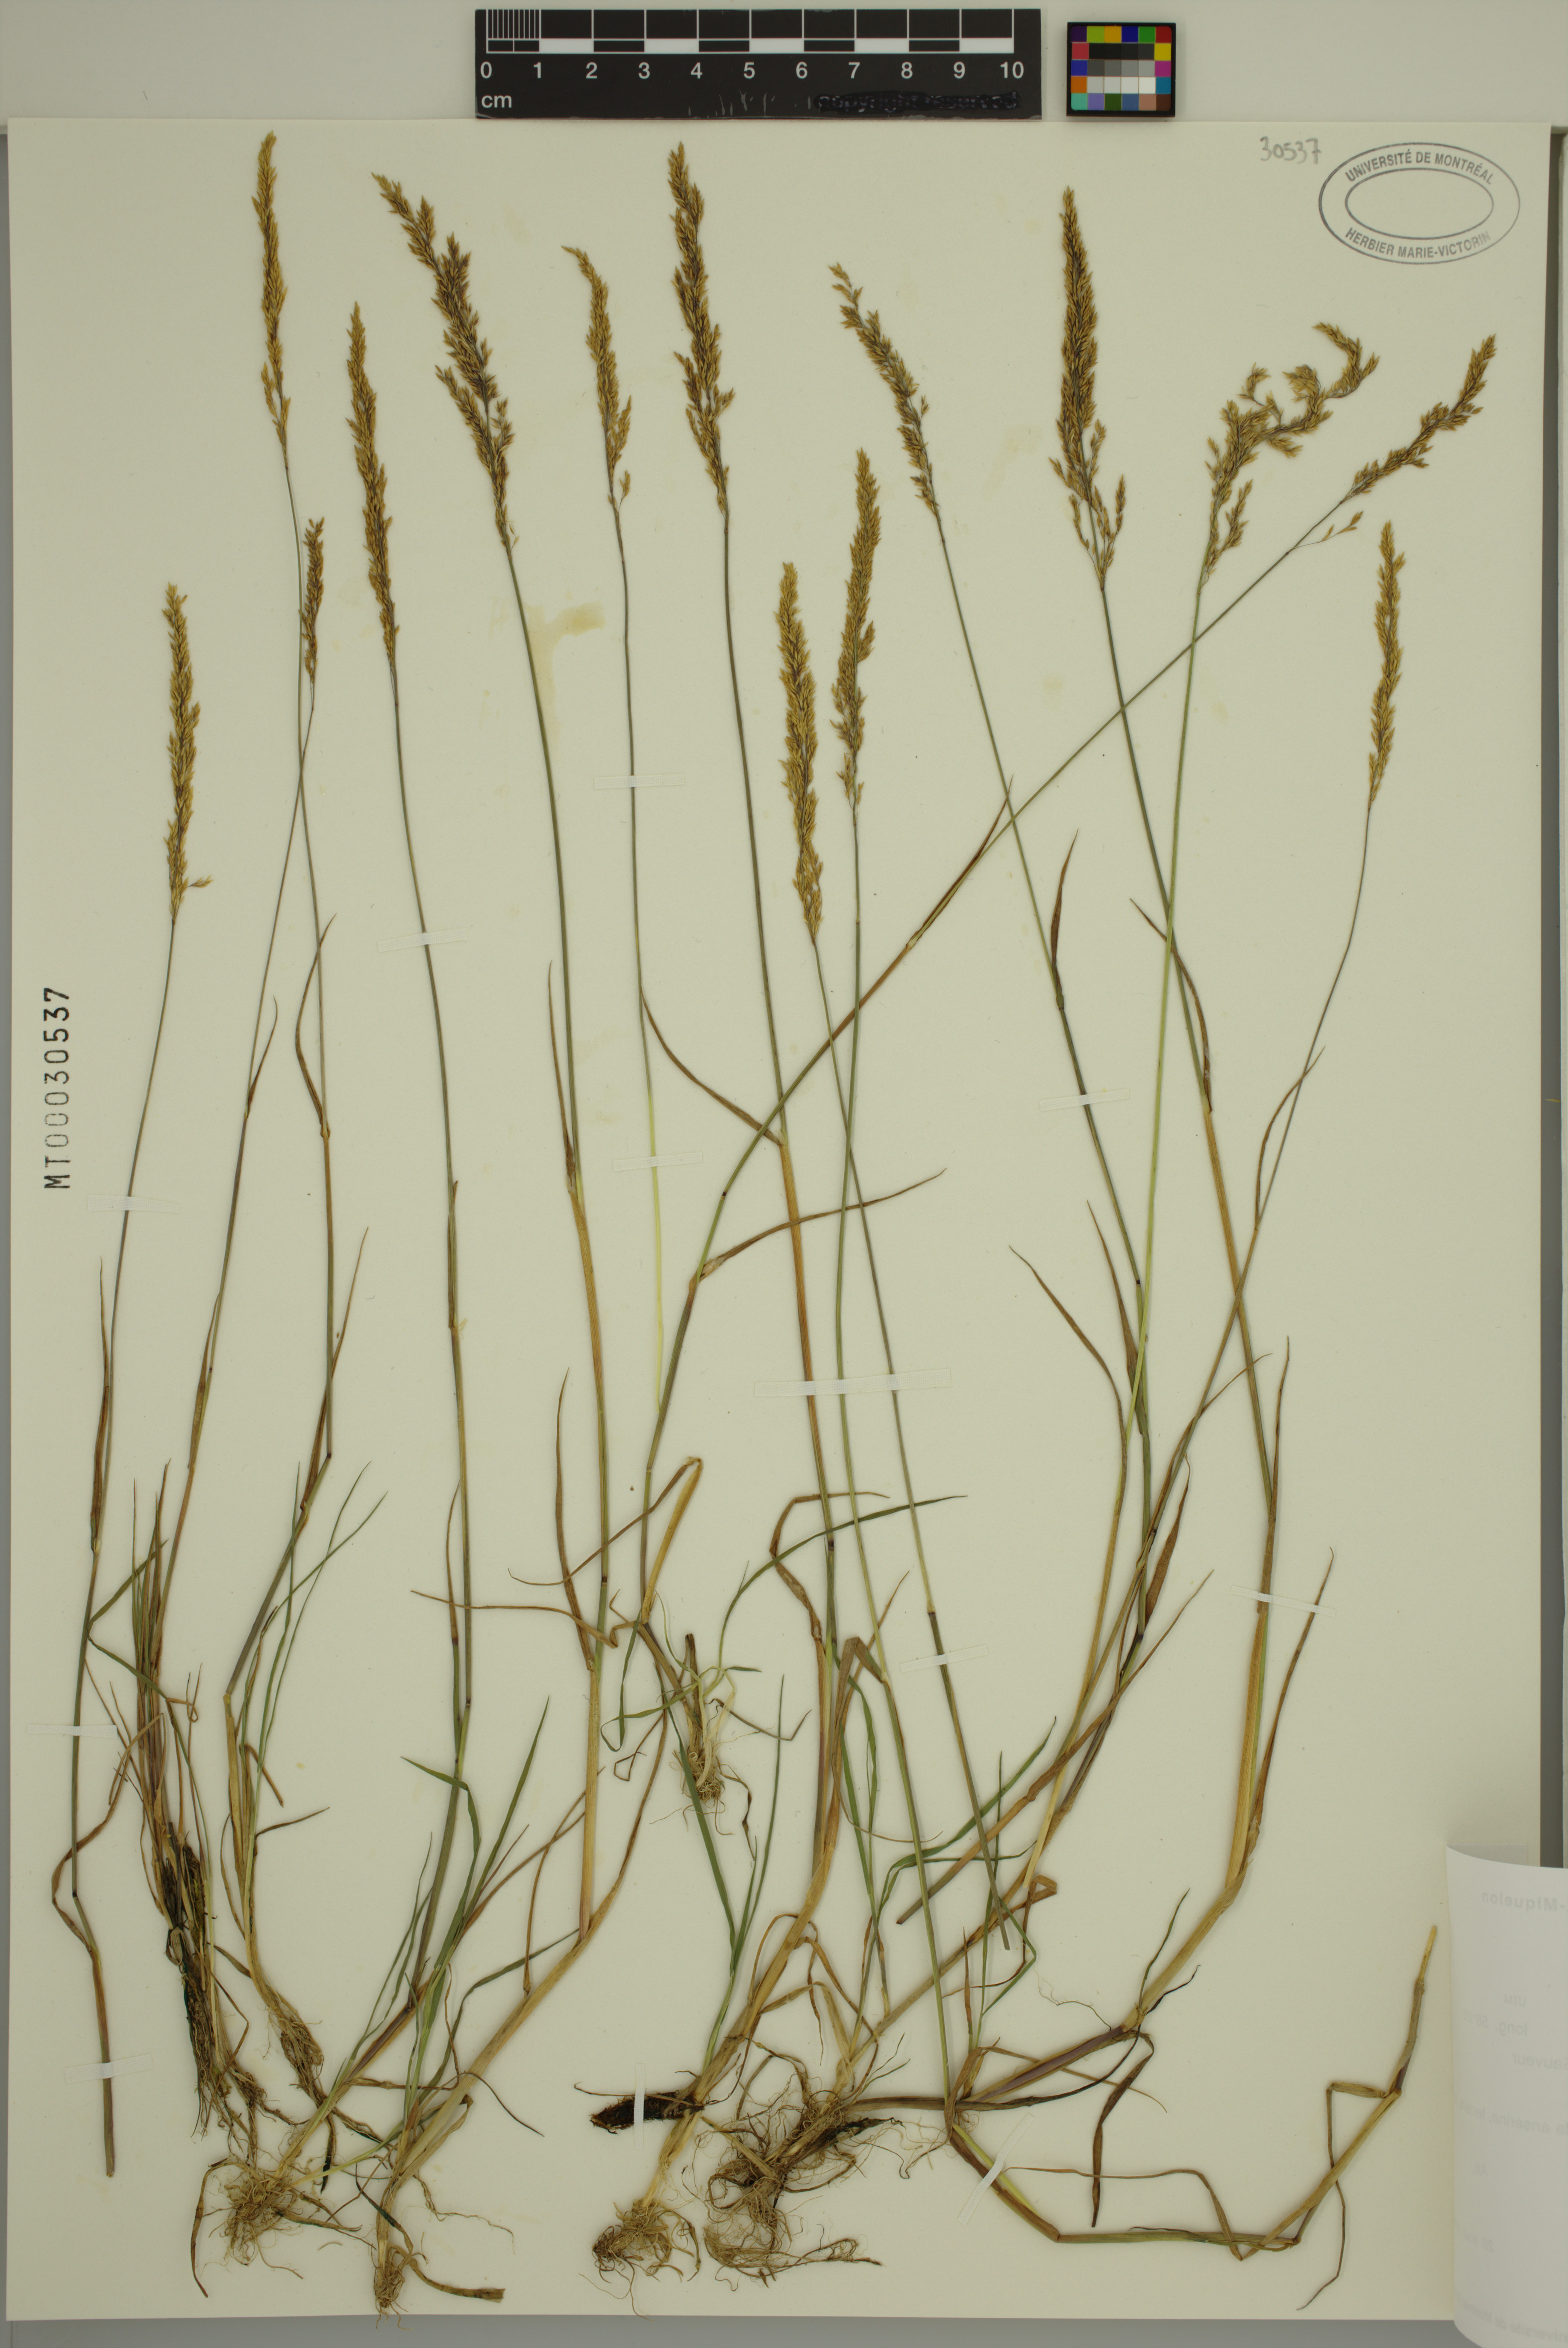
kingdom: Plantae
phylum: Tracheophyta
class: Liliopsida
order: Poales
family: Poaceae
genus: Agrostis
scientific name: Agrostis stolonifera
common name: Creeping bentgrass
